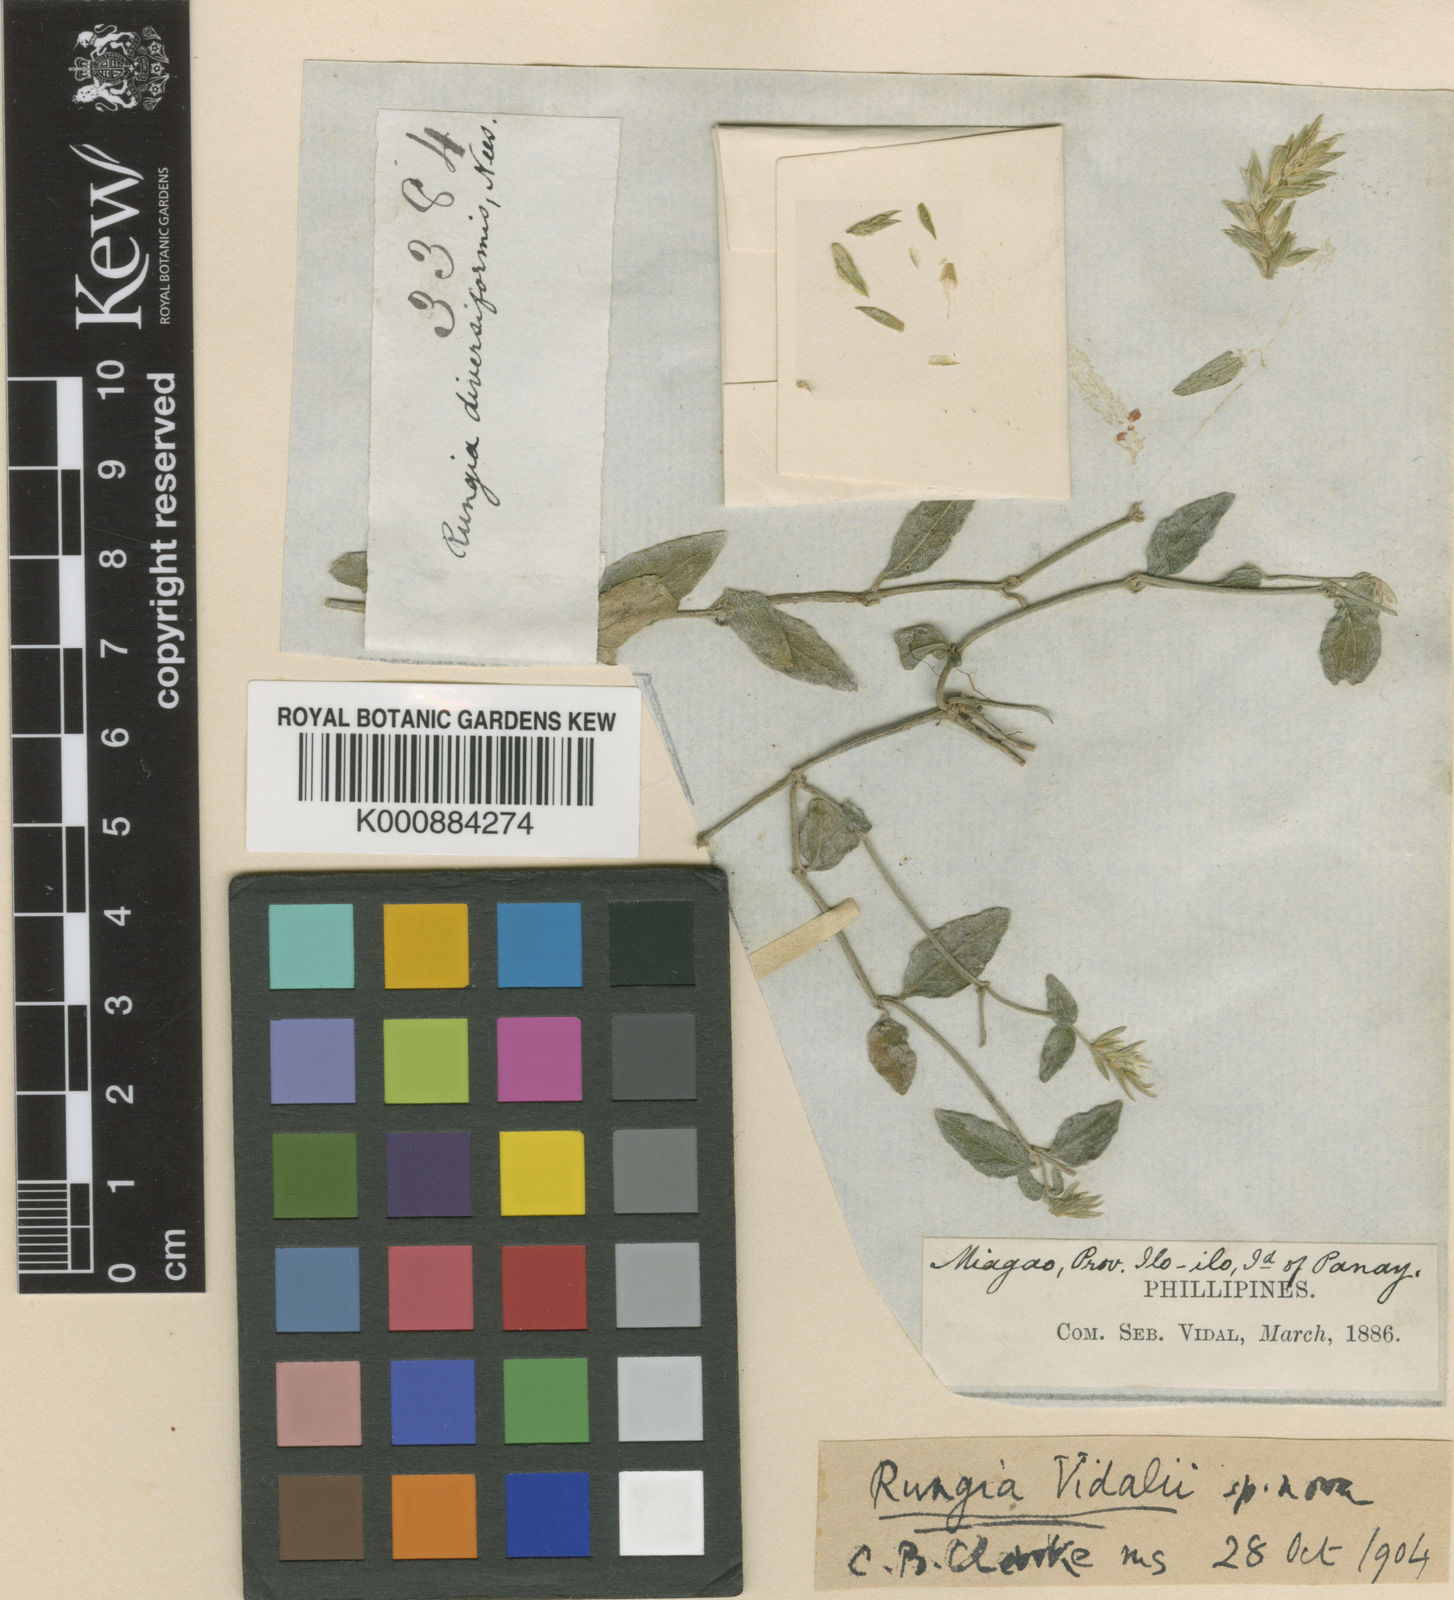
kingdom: Plantae
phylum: Tracheophyta
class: Magnoliopsida
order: Lamiales
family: Acanthaceae
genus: Justicia
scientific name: Justicia vidalii
